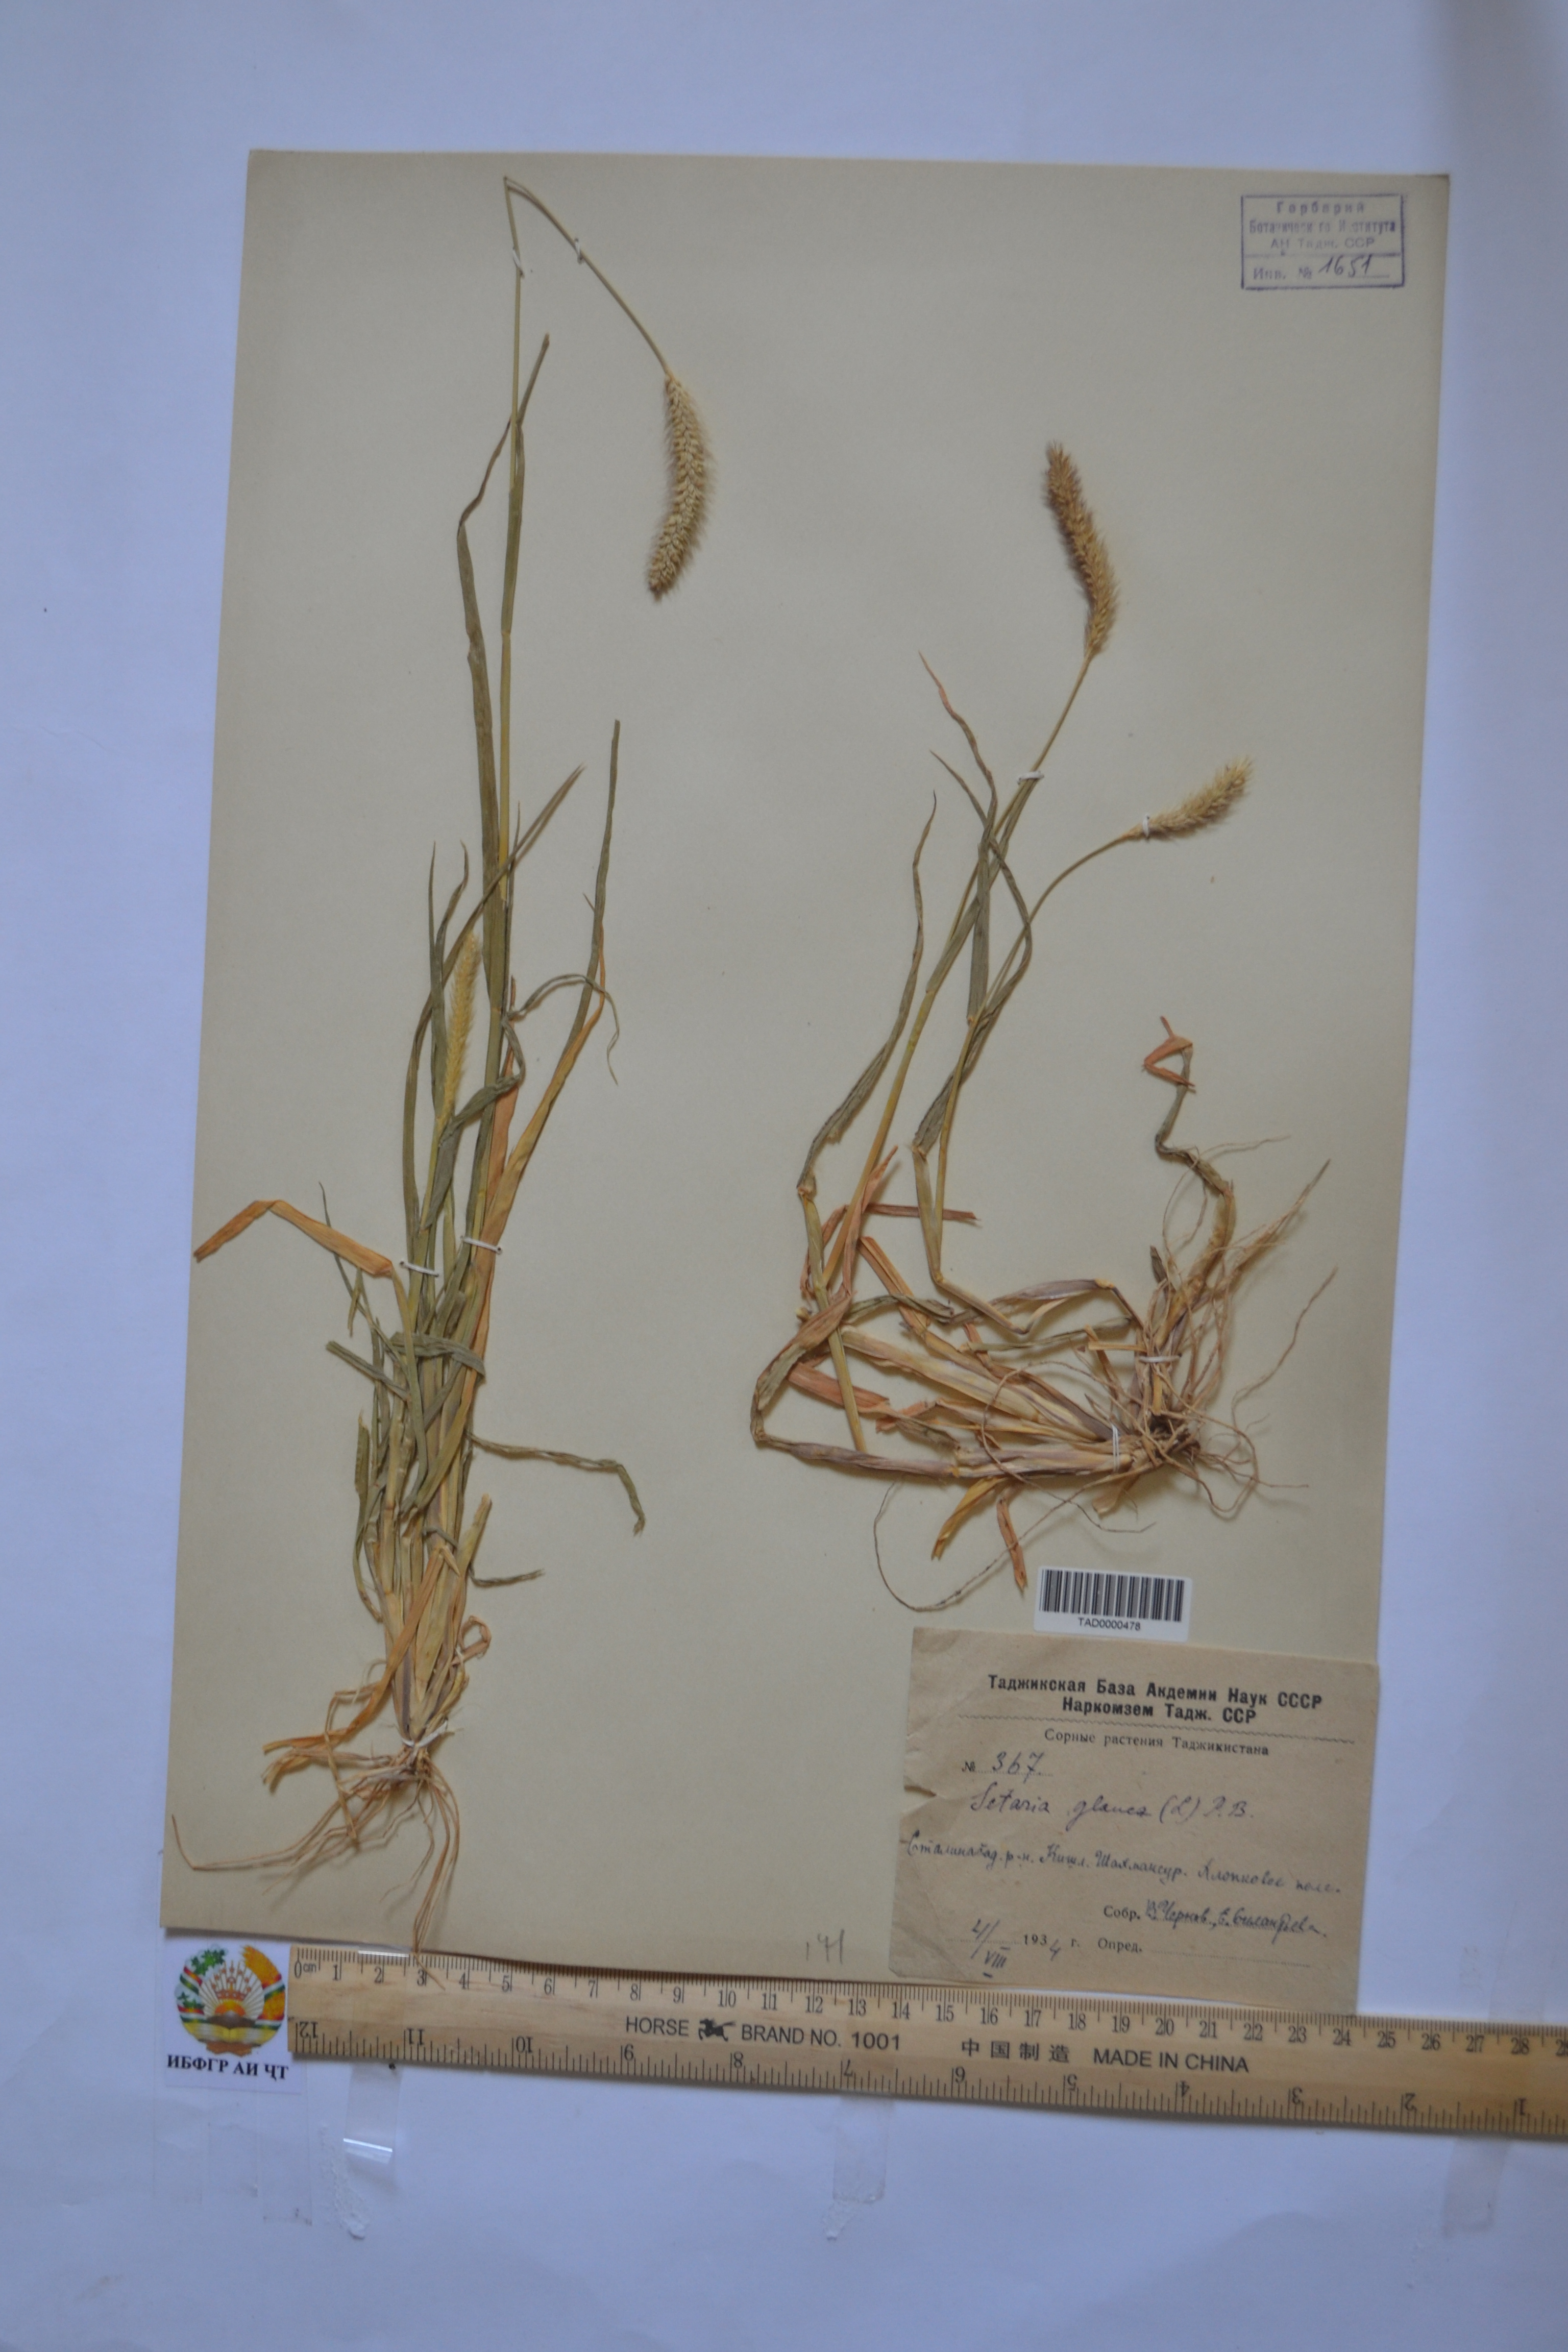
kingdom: Plantae
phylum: Tracheophyta
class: Liliopsida
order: Poales
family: Poaceae
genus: Cenchrus
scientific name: Cenchrus americanus
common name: Pearl millet
